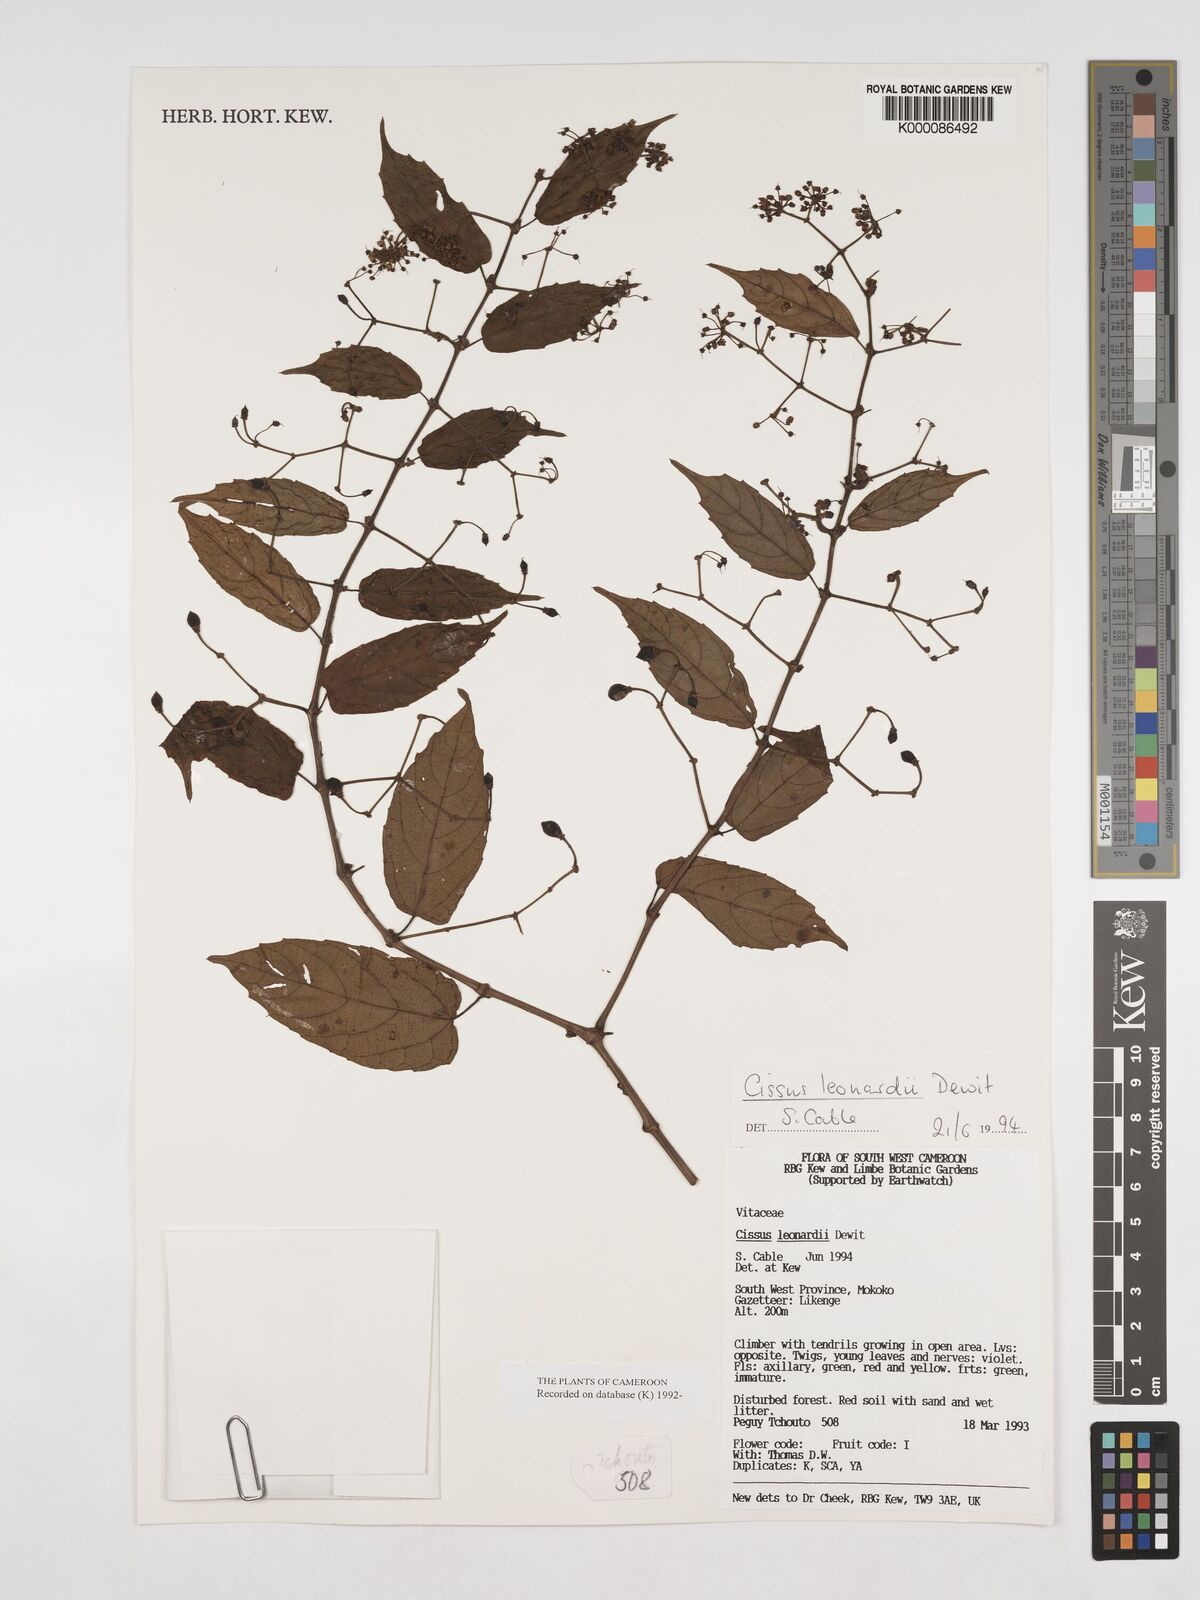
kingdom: Plantae
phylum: Tracheophyta
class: Magnoliopsida
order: Vitales
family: Vitaceae
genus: Cissus
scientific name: Cissus leonardii
